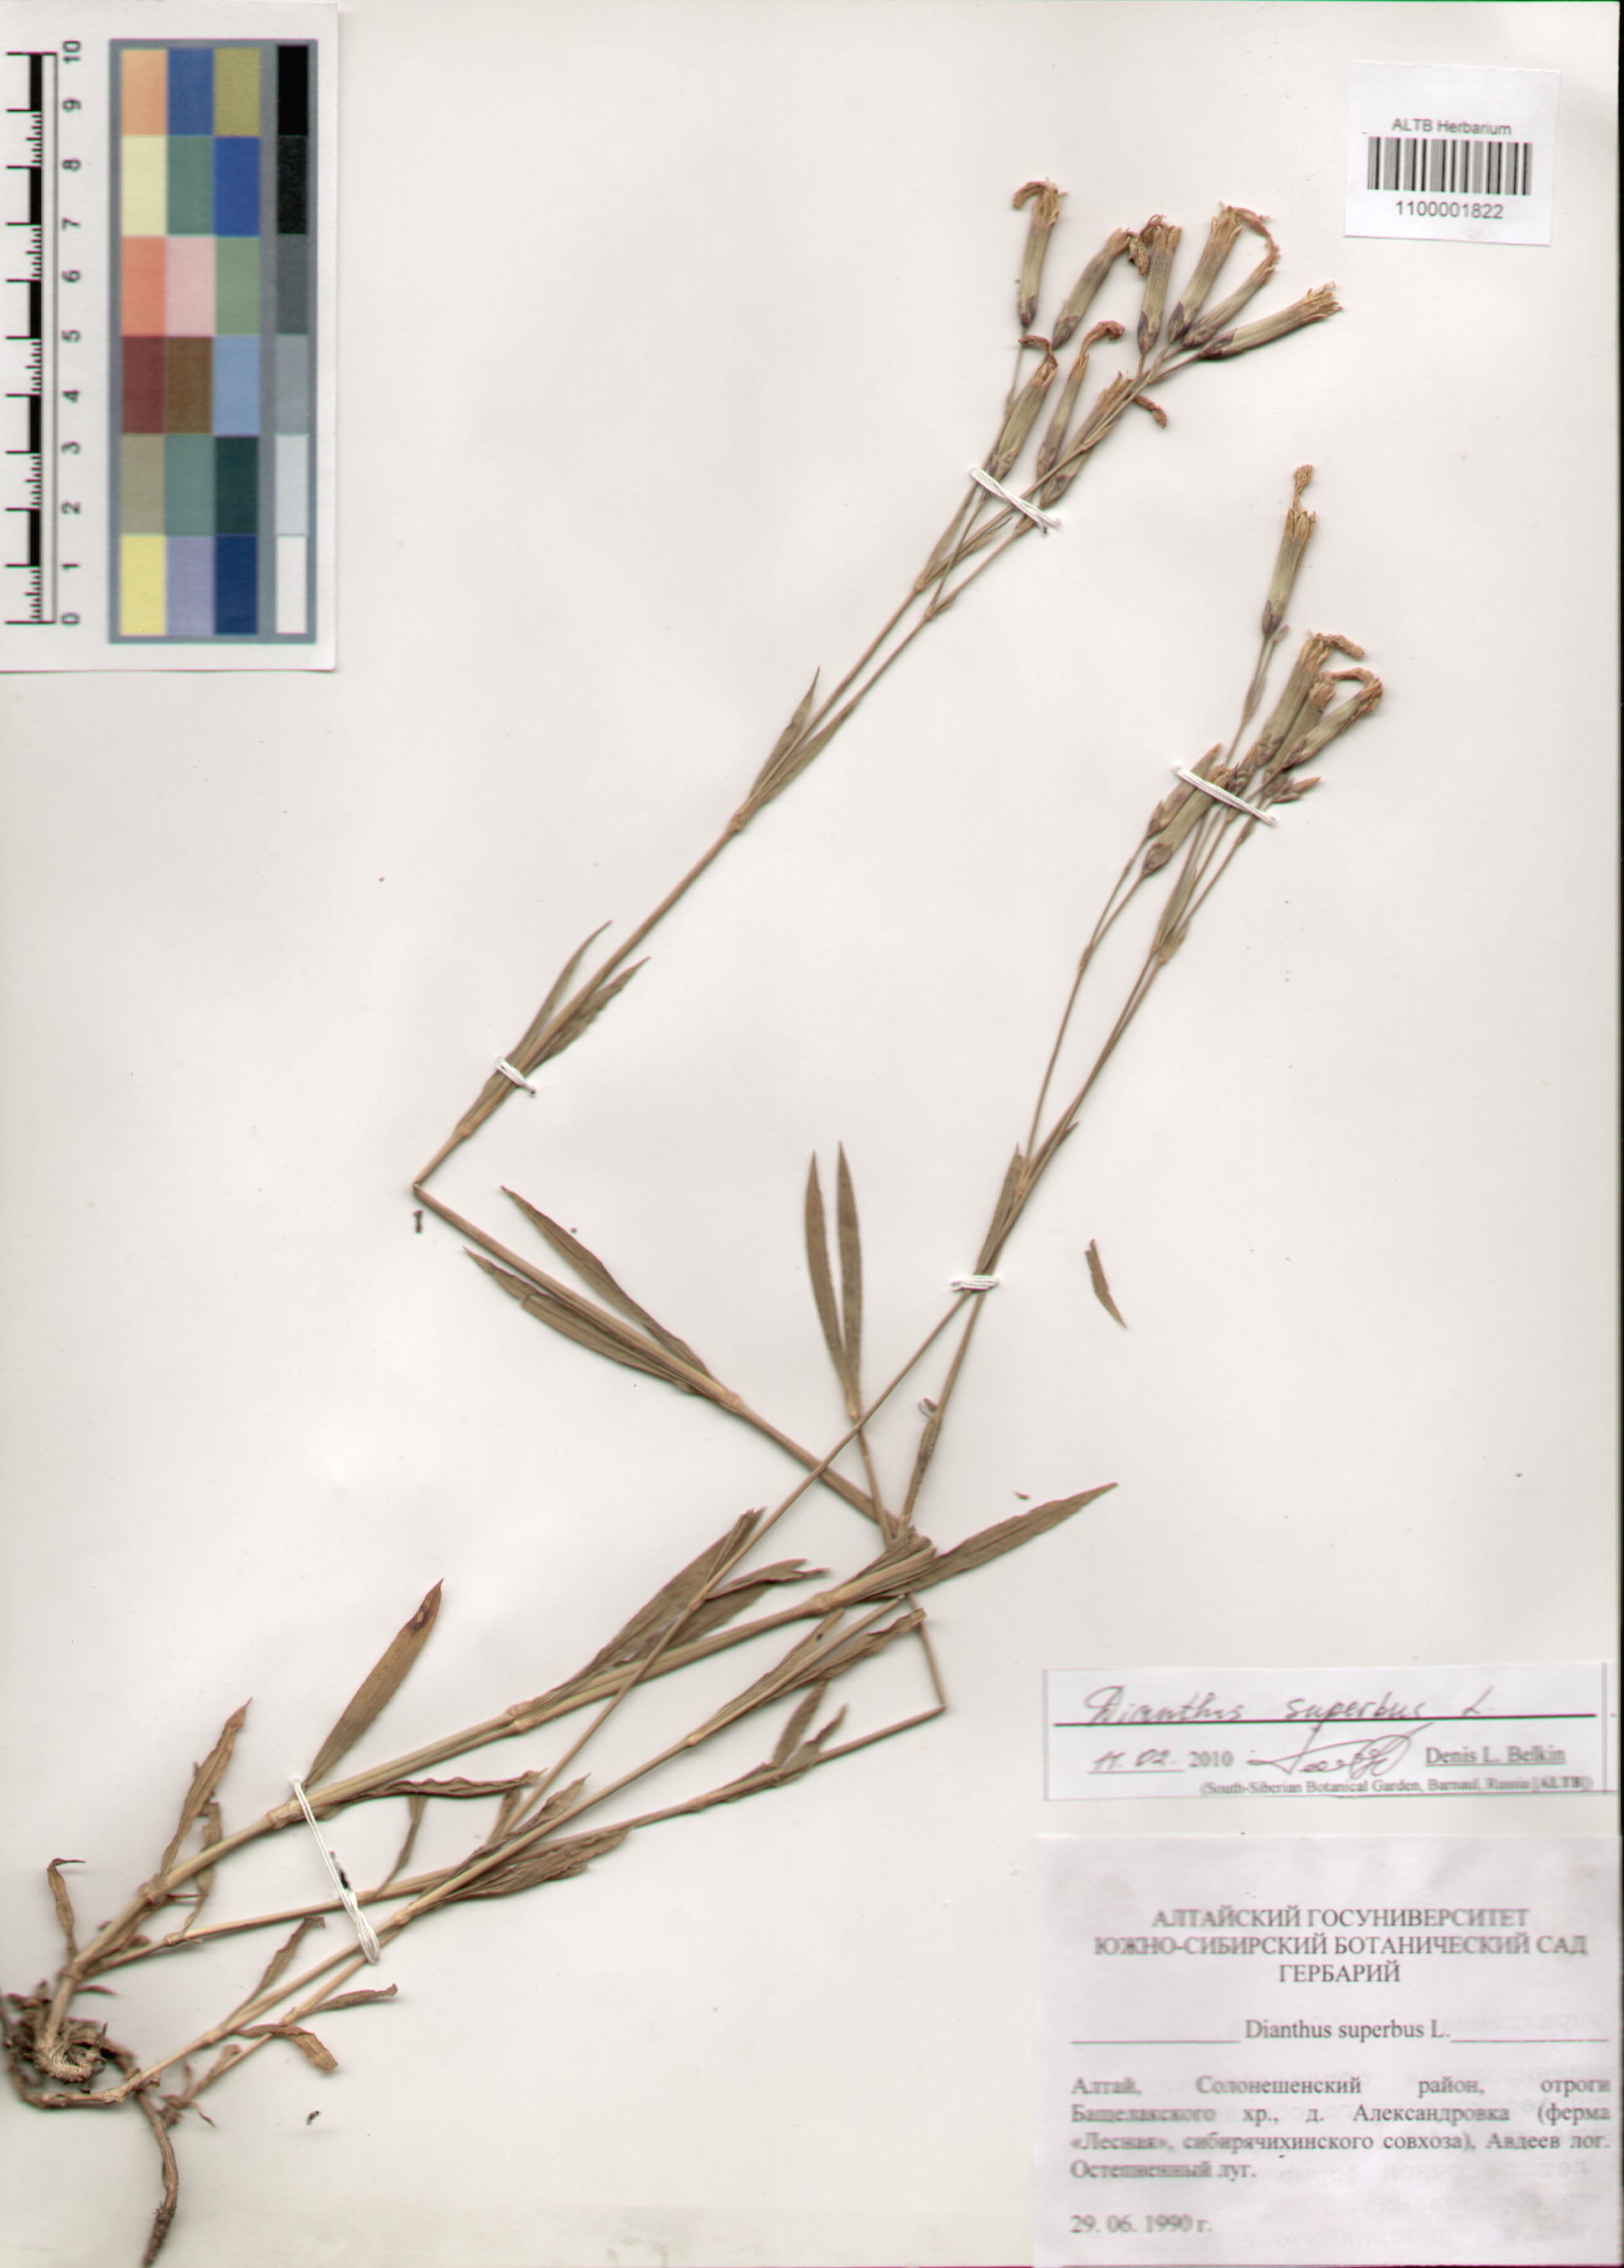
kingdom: Plantae
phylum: Tracheophyta
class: Magnoliopsida
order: Caryophyllales
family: Caryophyllaceae
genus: Dianthus
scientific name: Dianthus superbus
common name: Fringed pink
